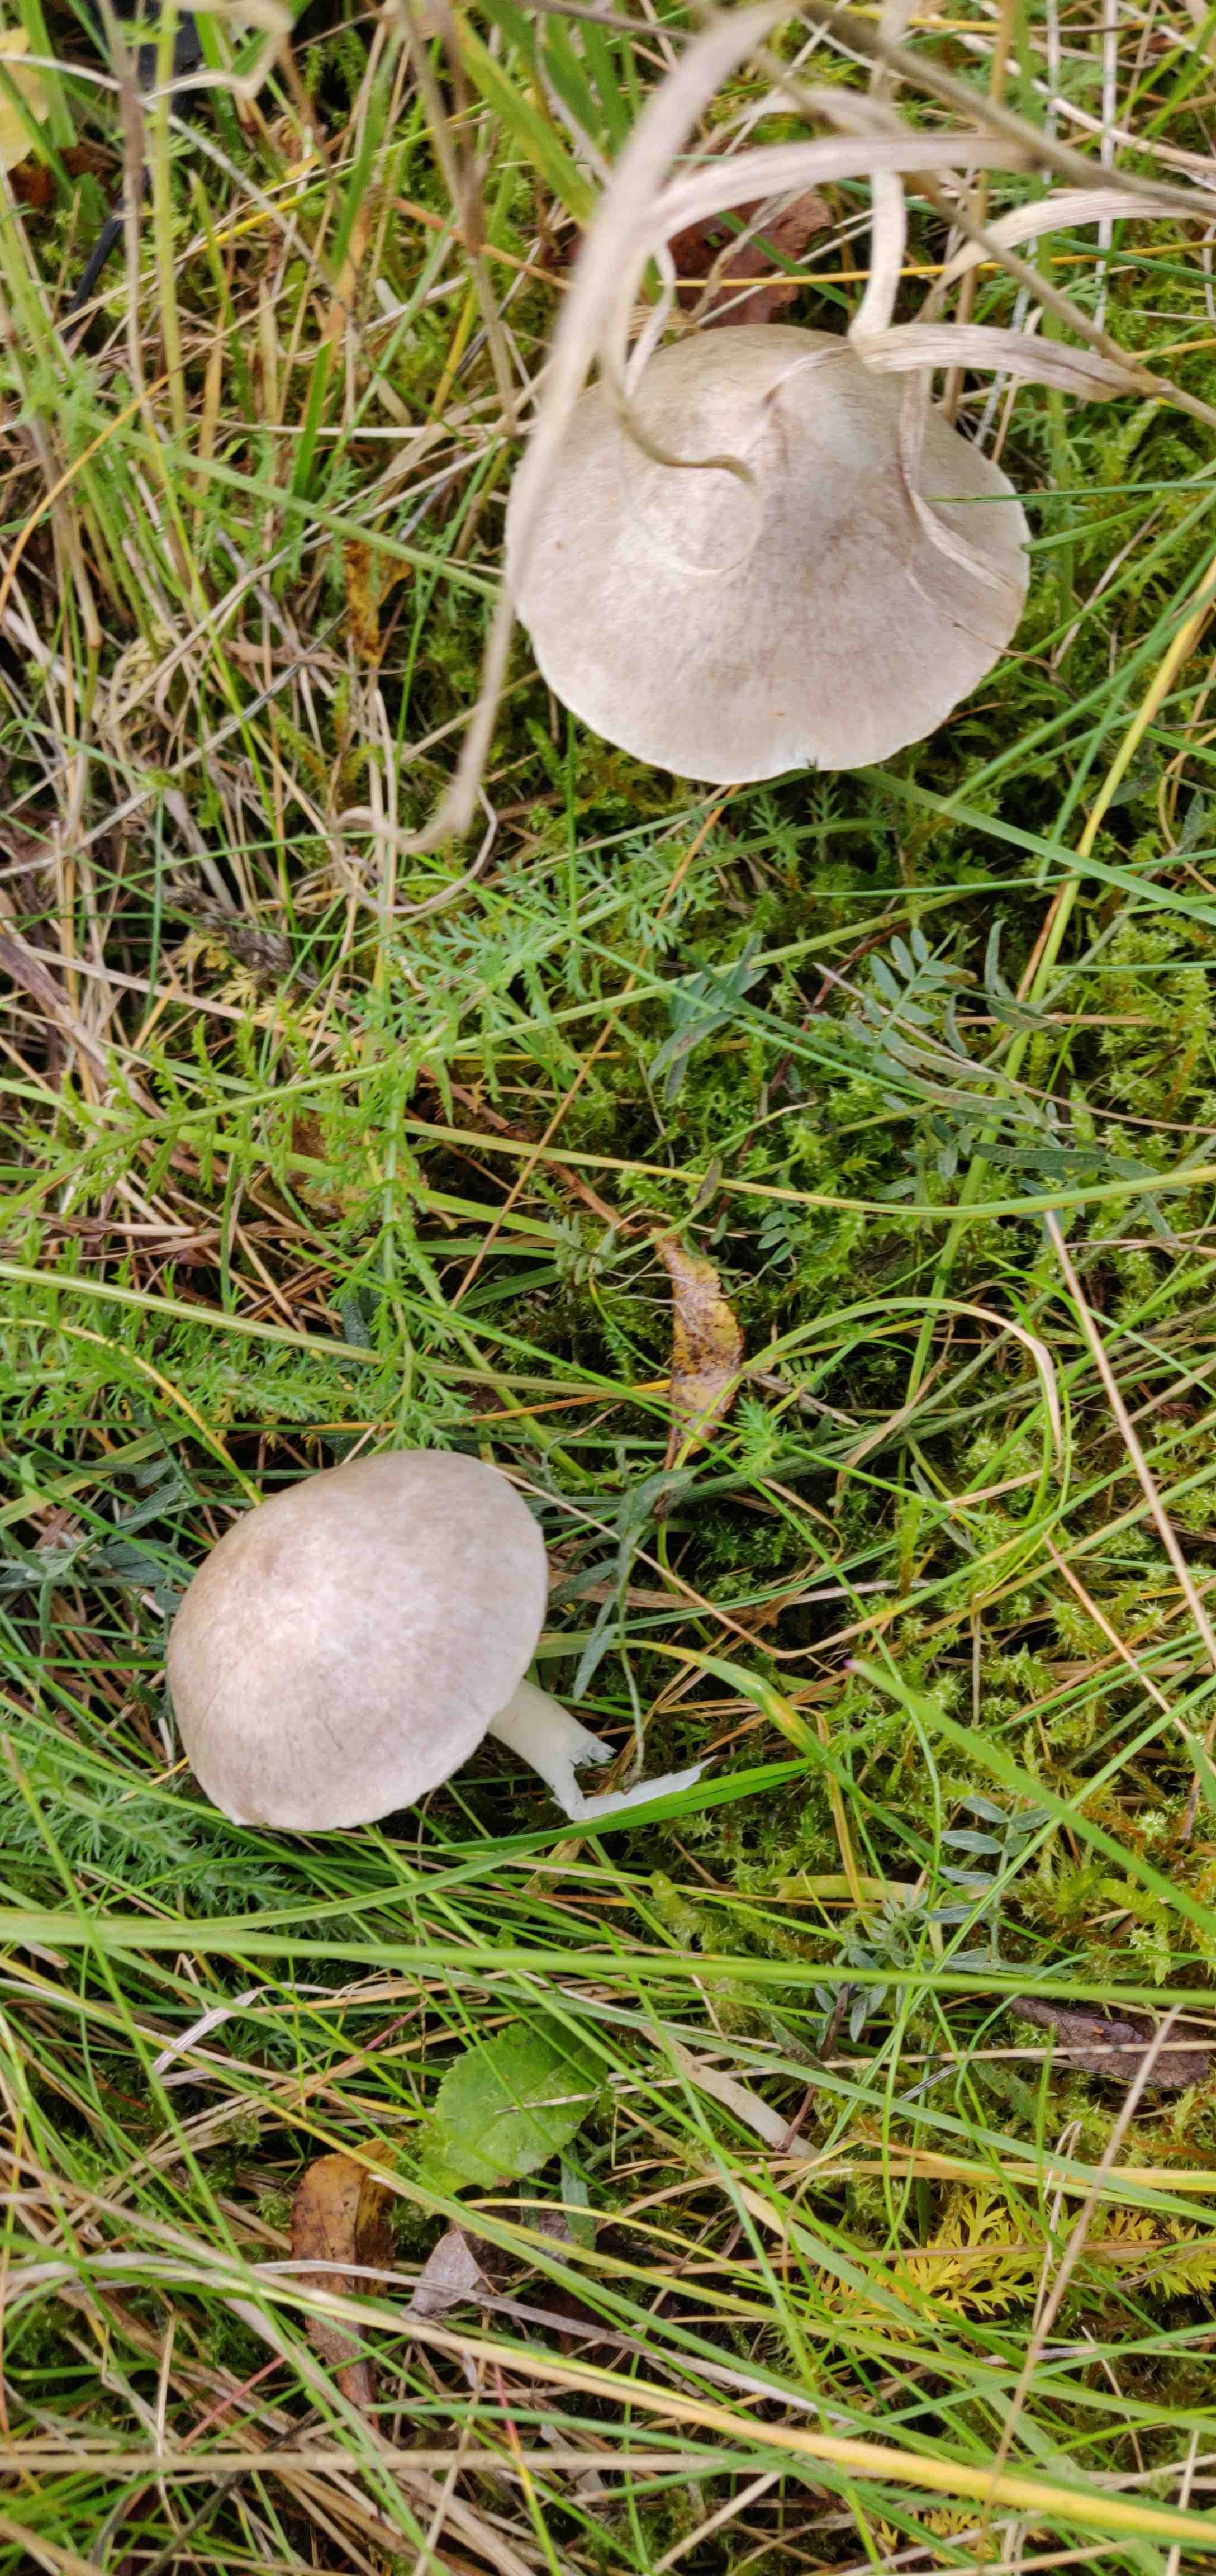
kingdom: Fungi
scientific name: Fungi
